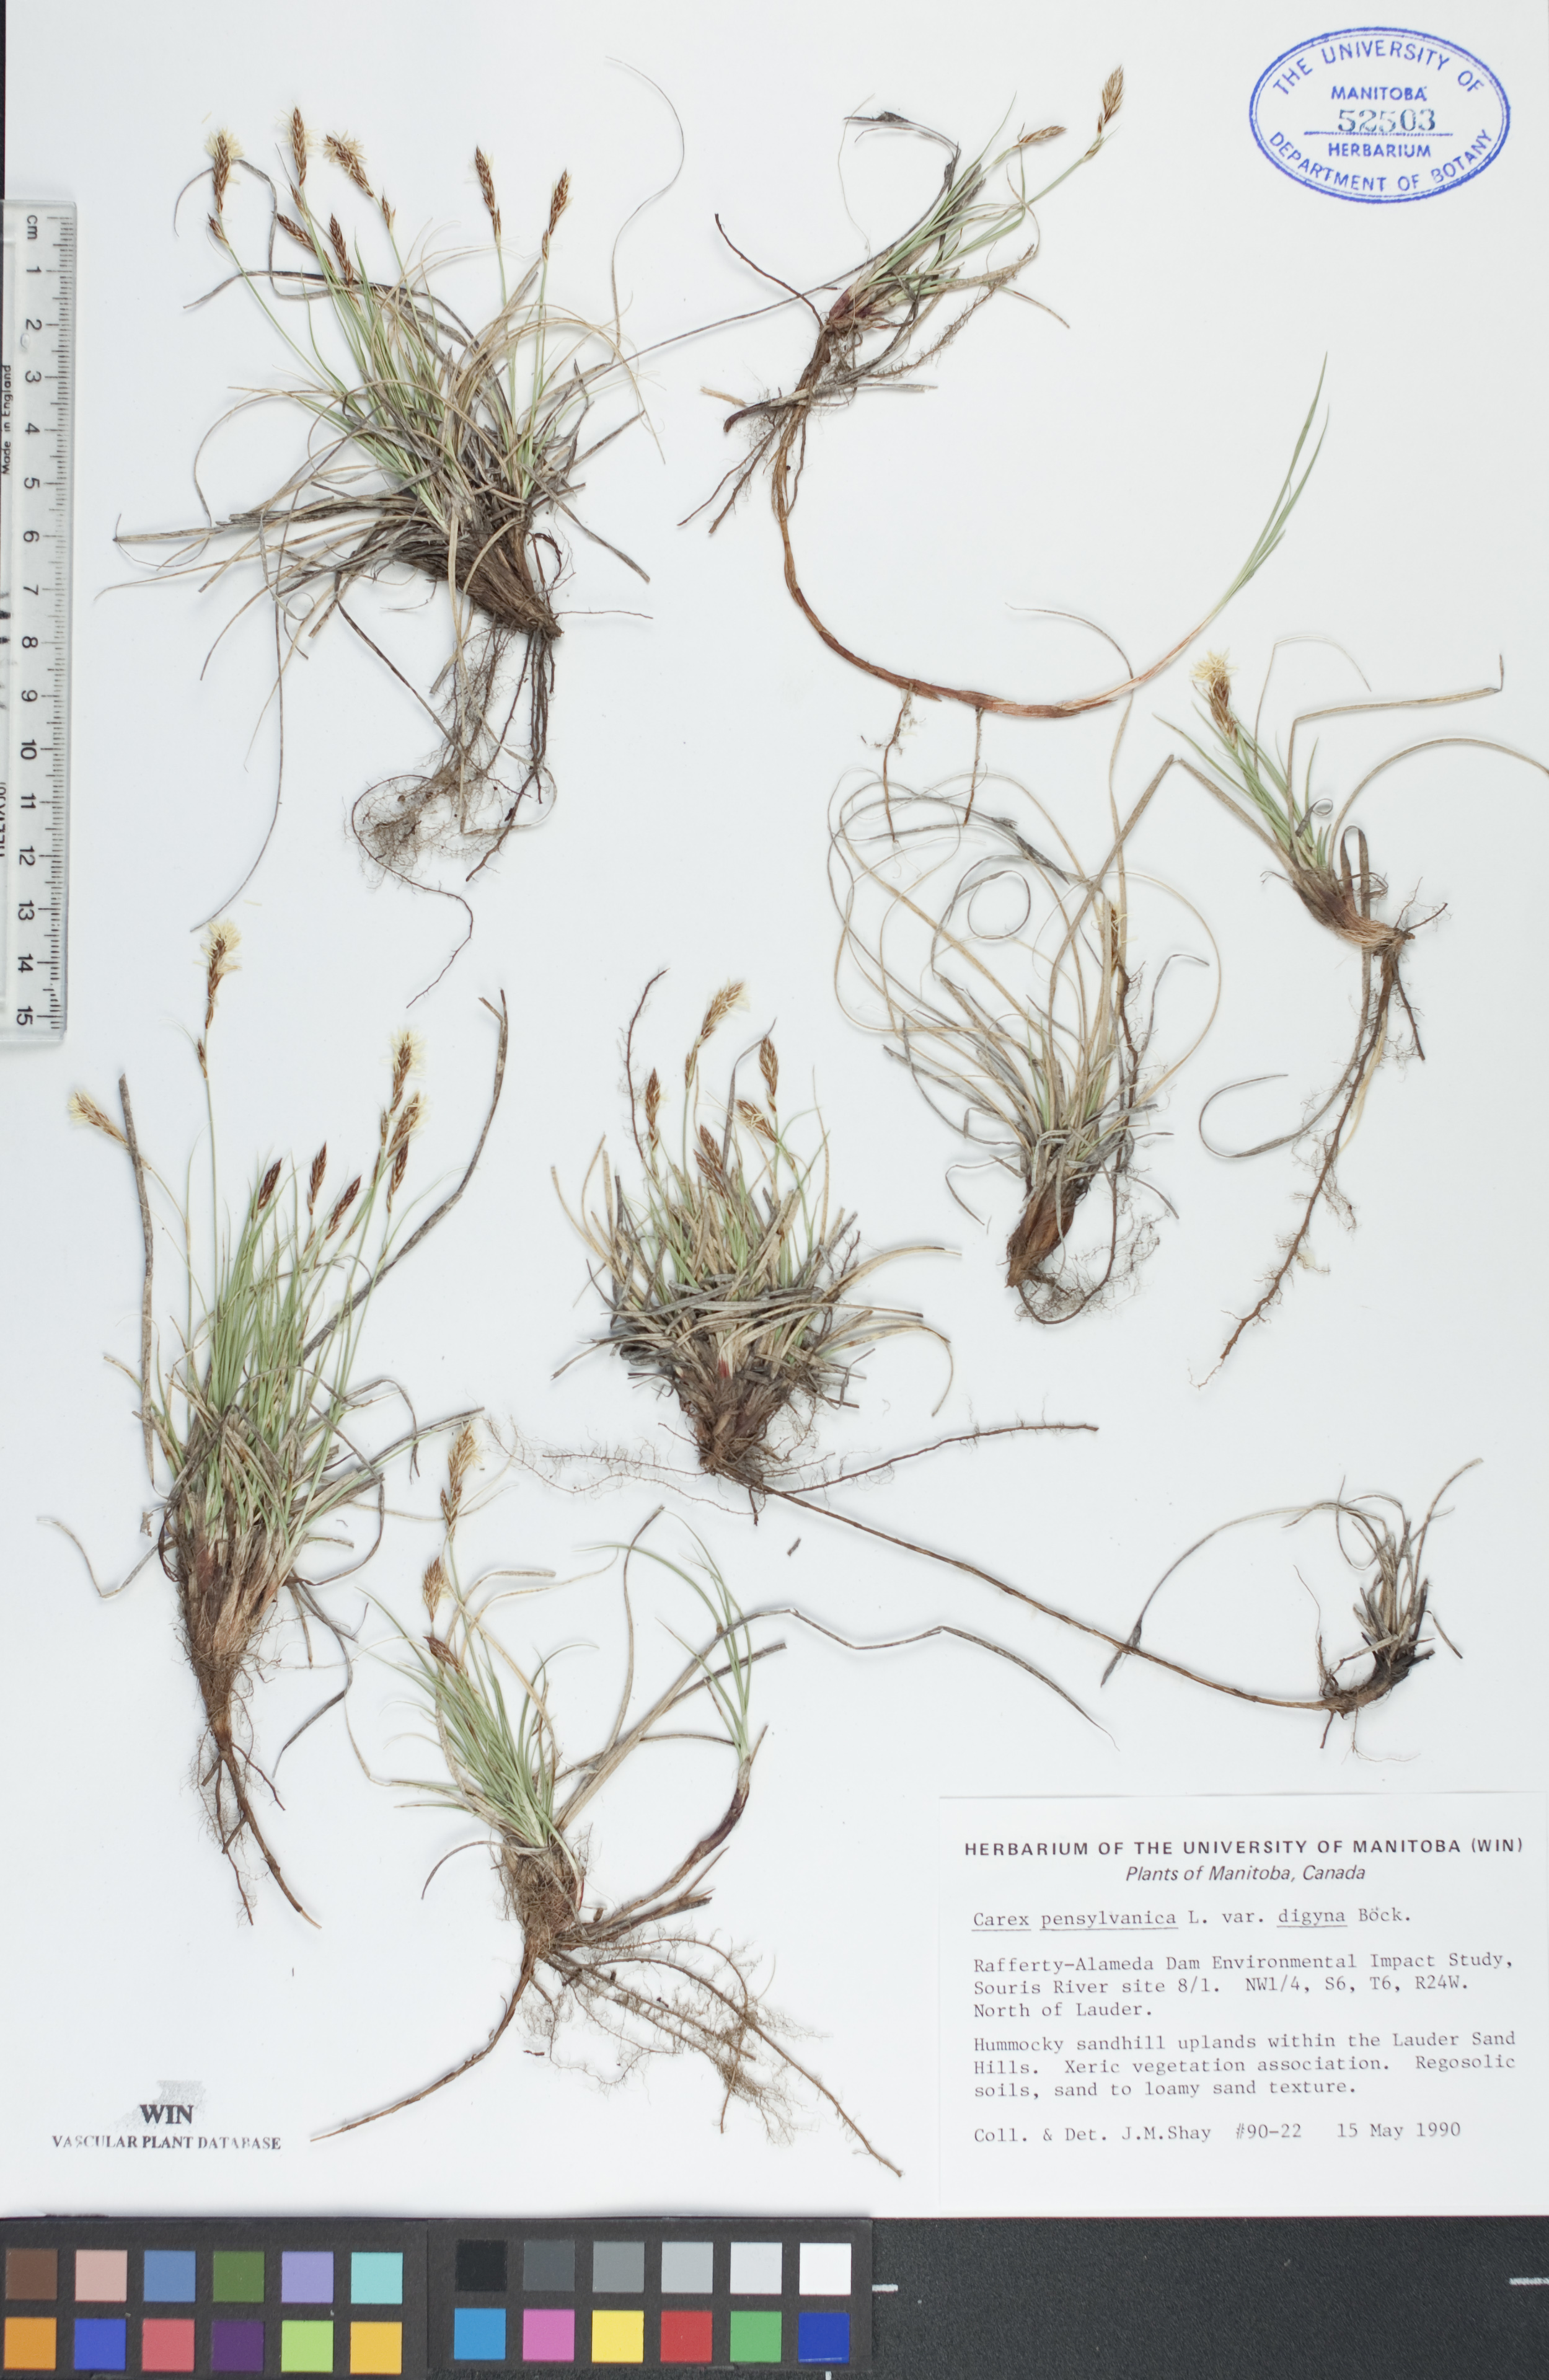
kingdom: Plantae
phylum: Tracheophyta
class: Liliopsida
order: Poales
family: Cyperaceae
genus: Carex
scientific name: Carex inops
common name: Long-stolon sedge
